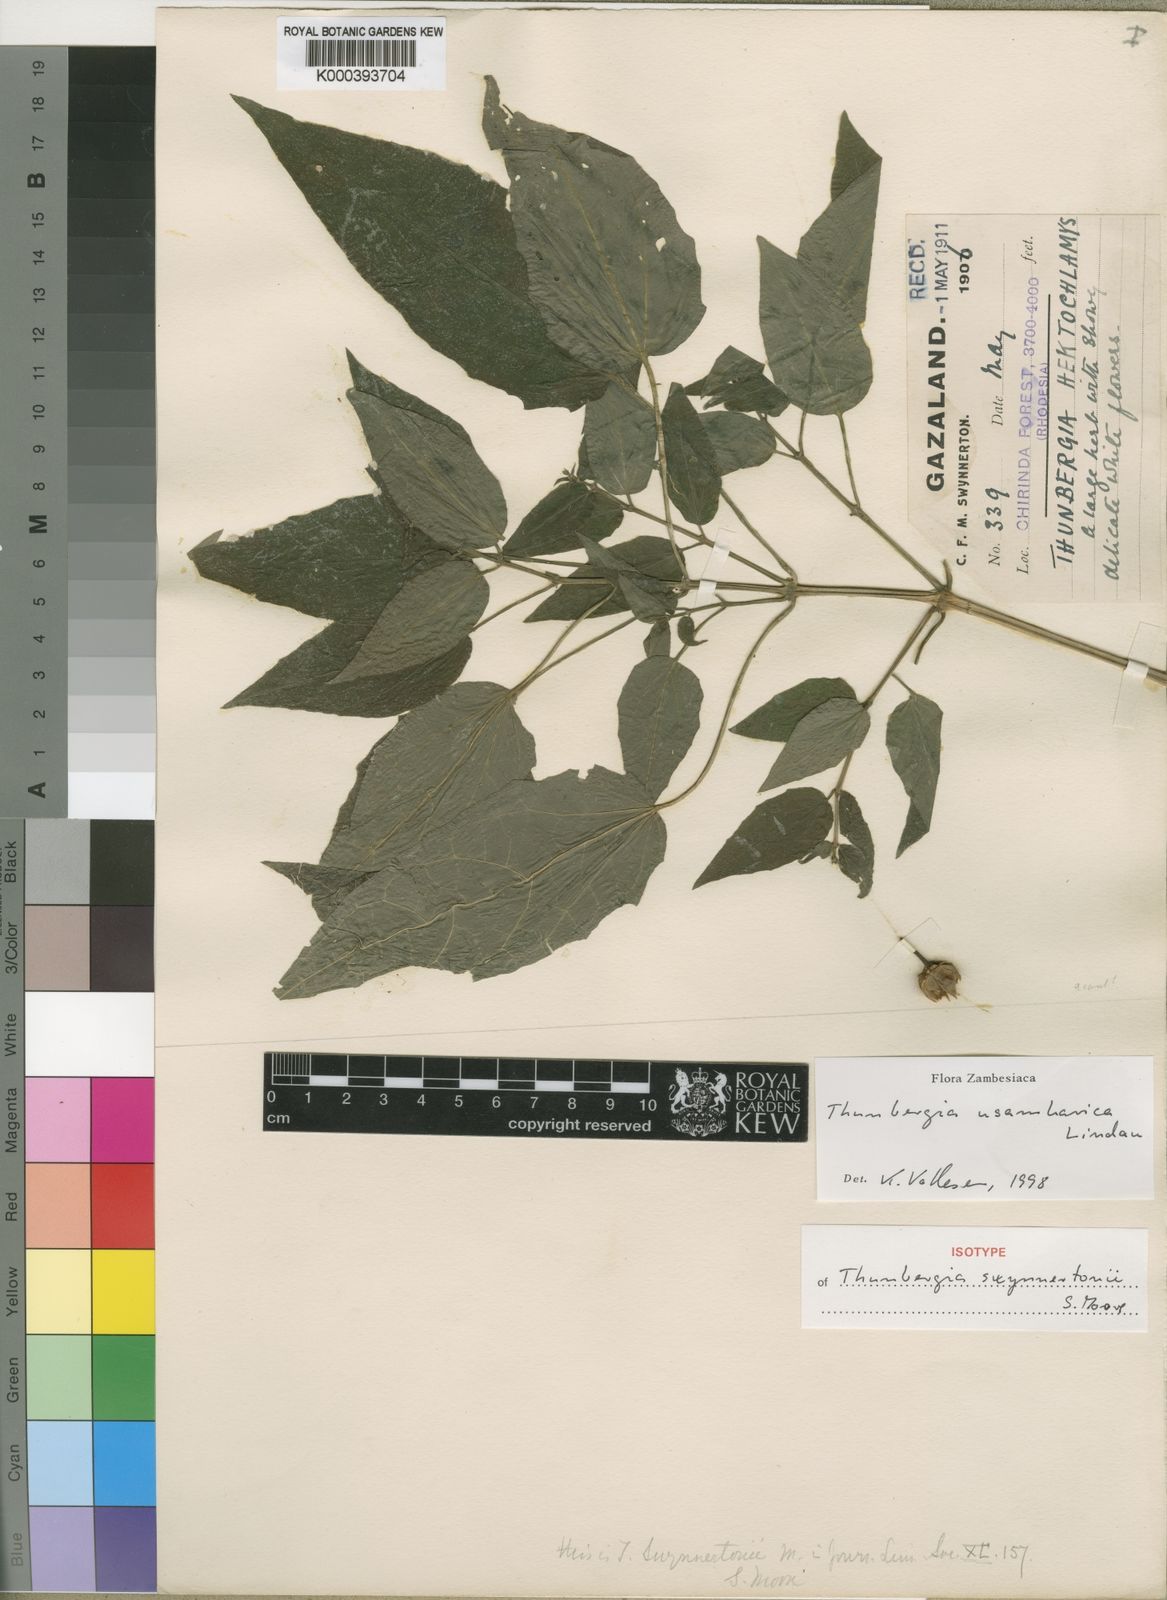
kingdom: Plantae
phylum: Tracheophyta
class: Magnoliopsida
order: Lamiales
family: Acanthaceae
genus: Thunbergia
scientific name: Thunbergia usambarica
